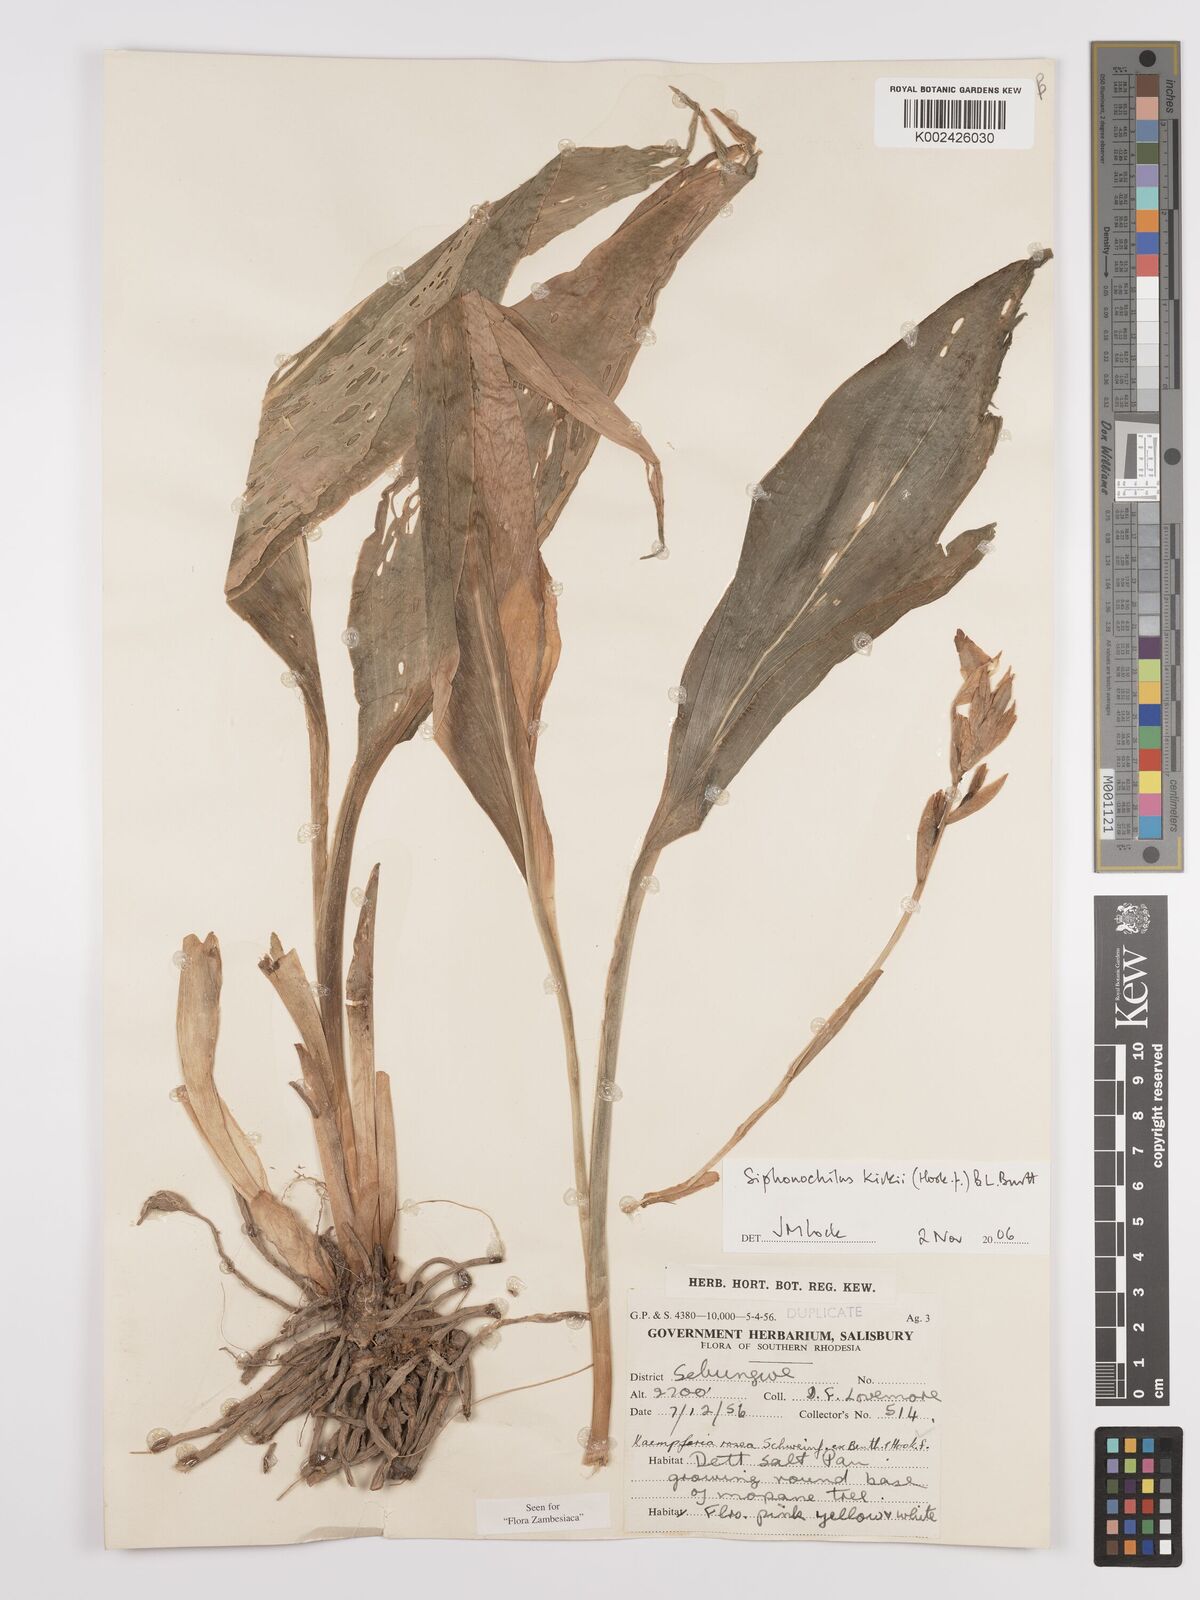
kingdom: Plantae
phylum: Tracheophyta
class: Liliopsida
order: Zingiberales
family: Zingiberaceae
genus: Siphonochilus
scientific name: Siphonochilus kirkii
